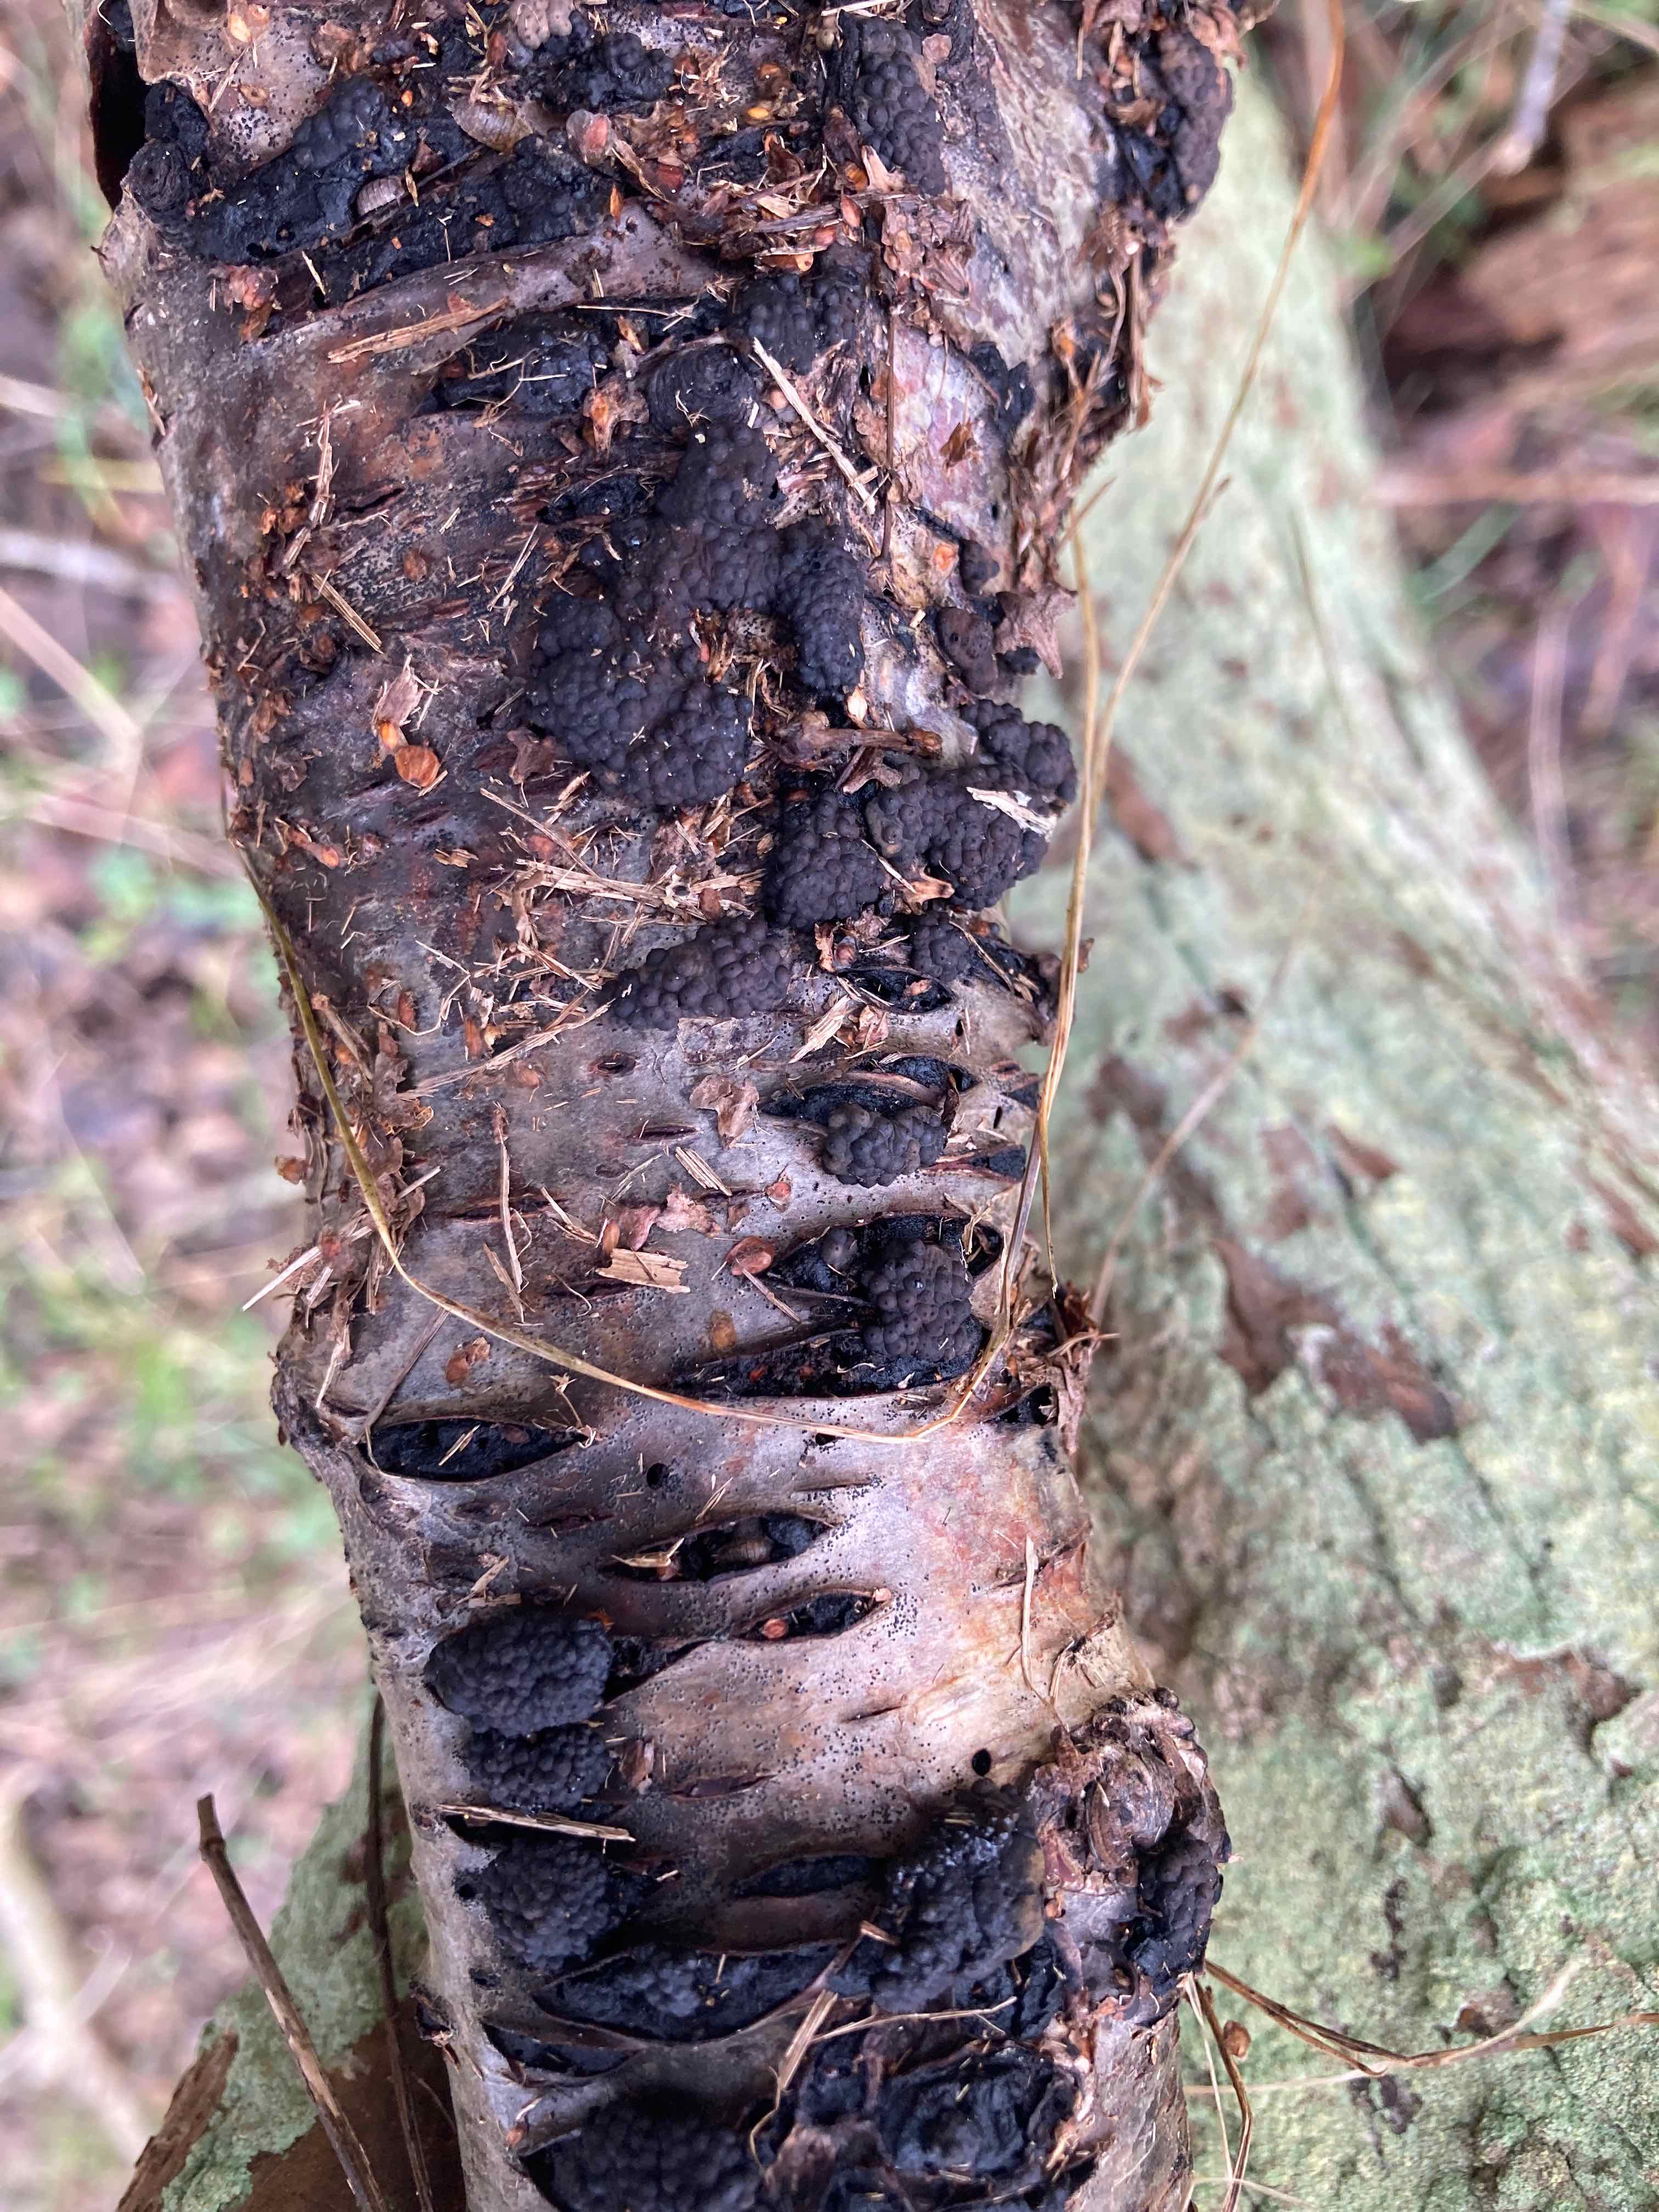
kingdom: Fungi
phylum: Ascomycota
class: Sordariomycetes
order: Xylariales
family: Hypoxylaceae
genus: Jackrogersella
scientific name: Jackrogersella multiformis
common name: foranderlig kulbær
